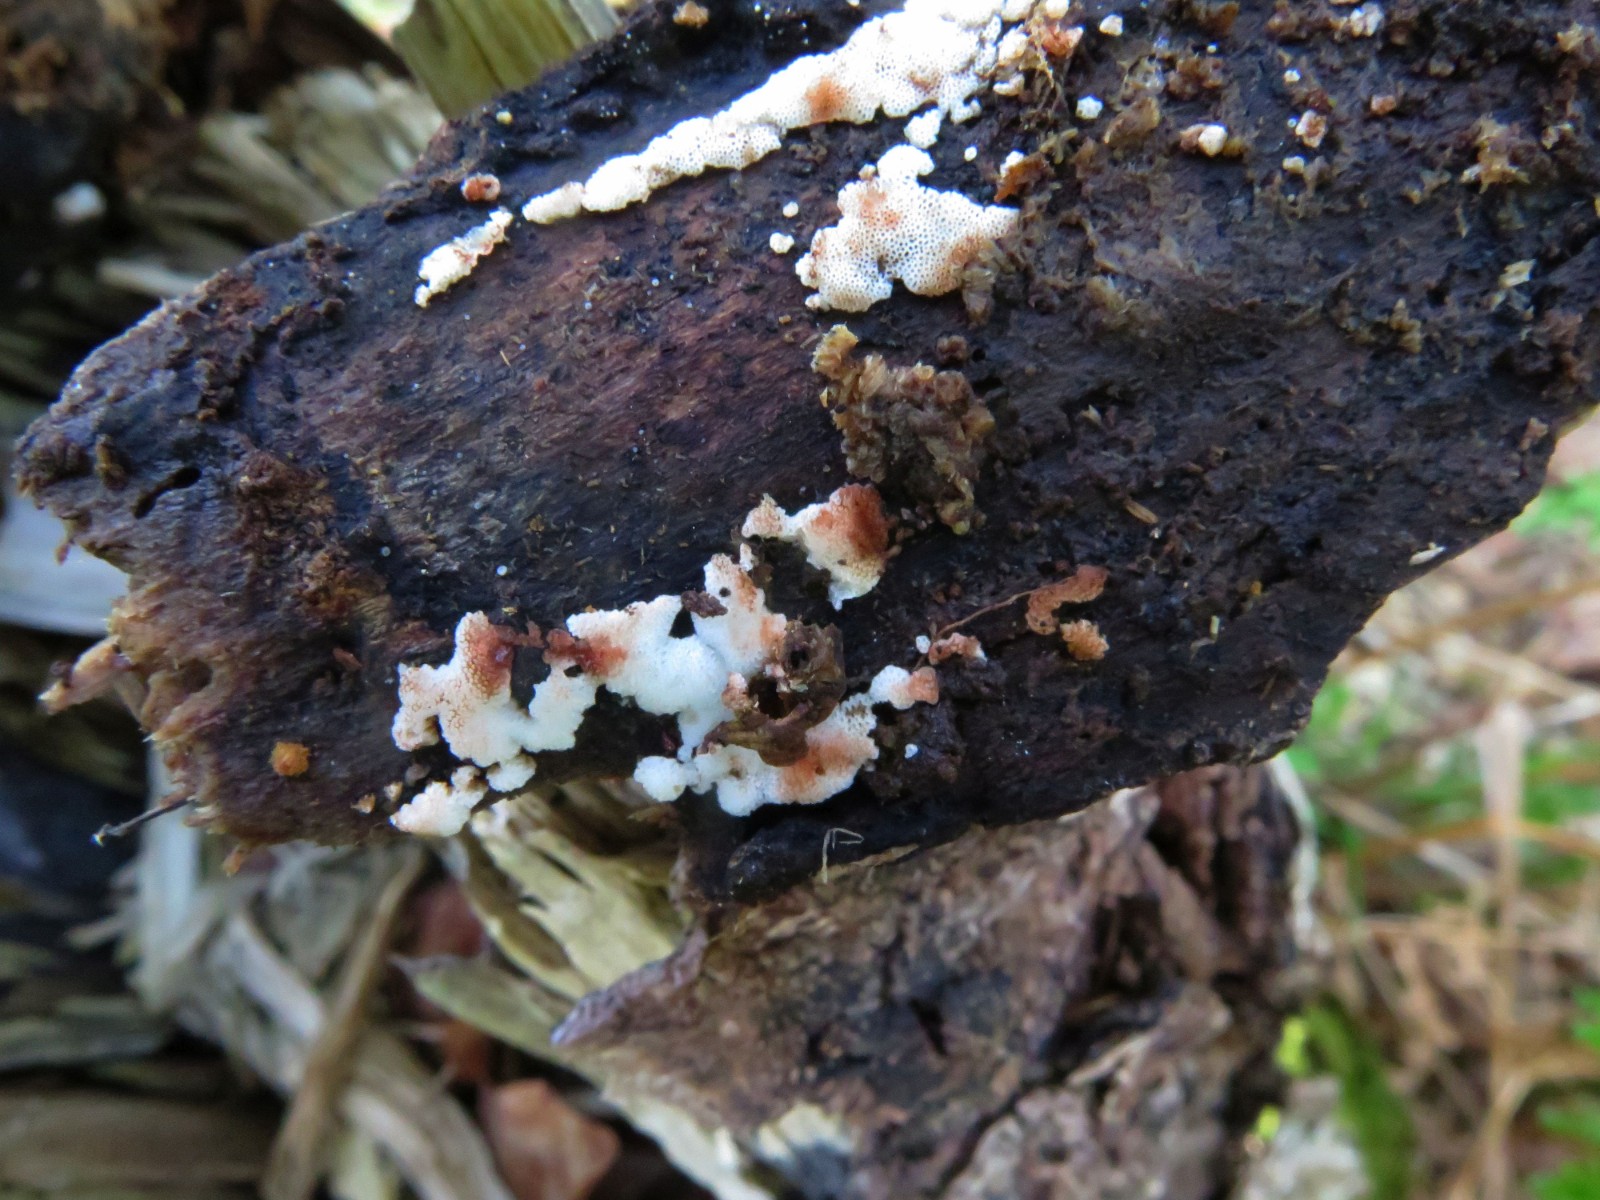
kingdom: Fungi
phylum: Basidiomycota
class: Agaricomycetes
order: Polyporales
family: Meripilaceae
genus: Rigidoporus
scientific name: Rigidoporus sanguinolentus
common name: blod-skorpeporesvamp
